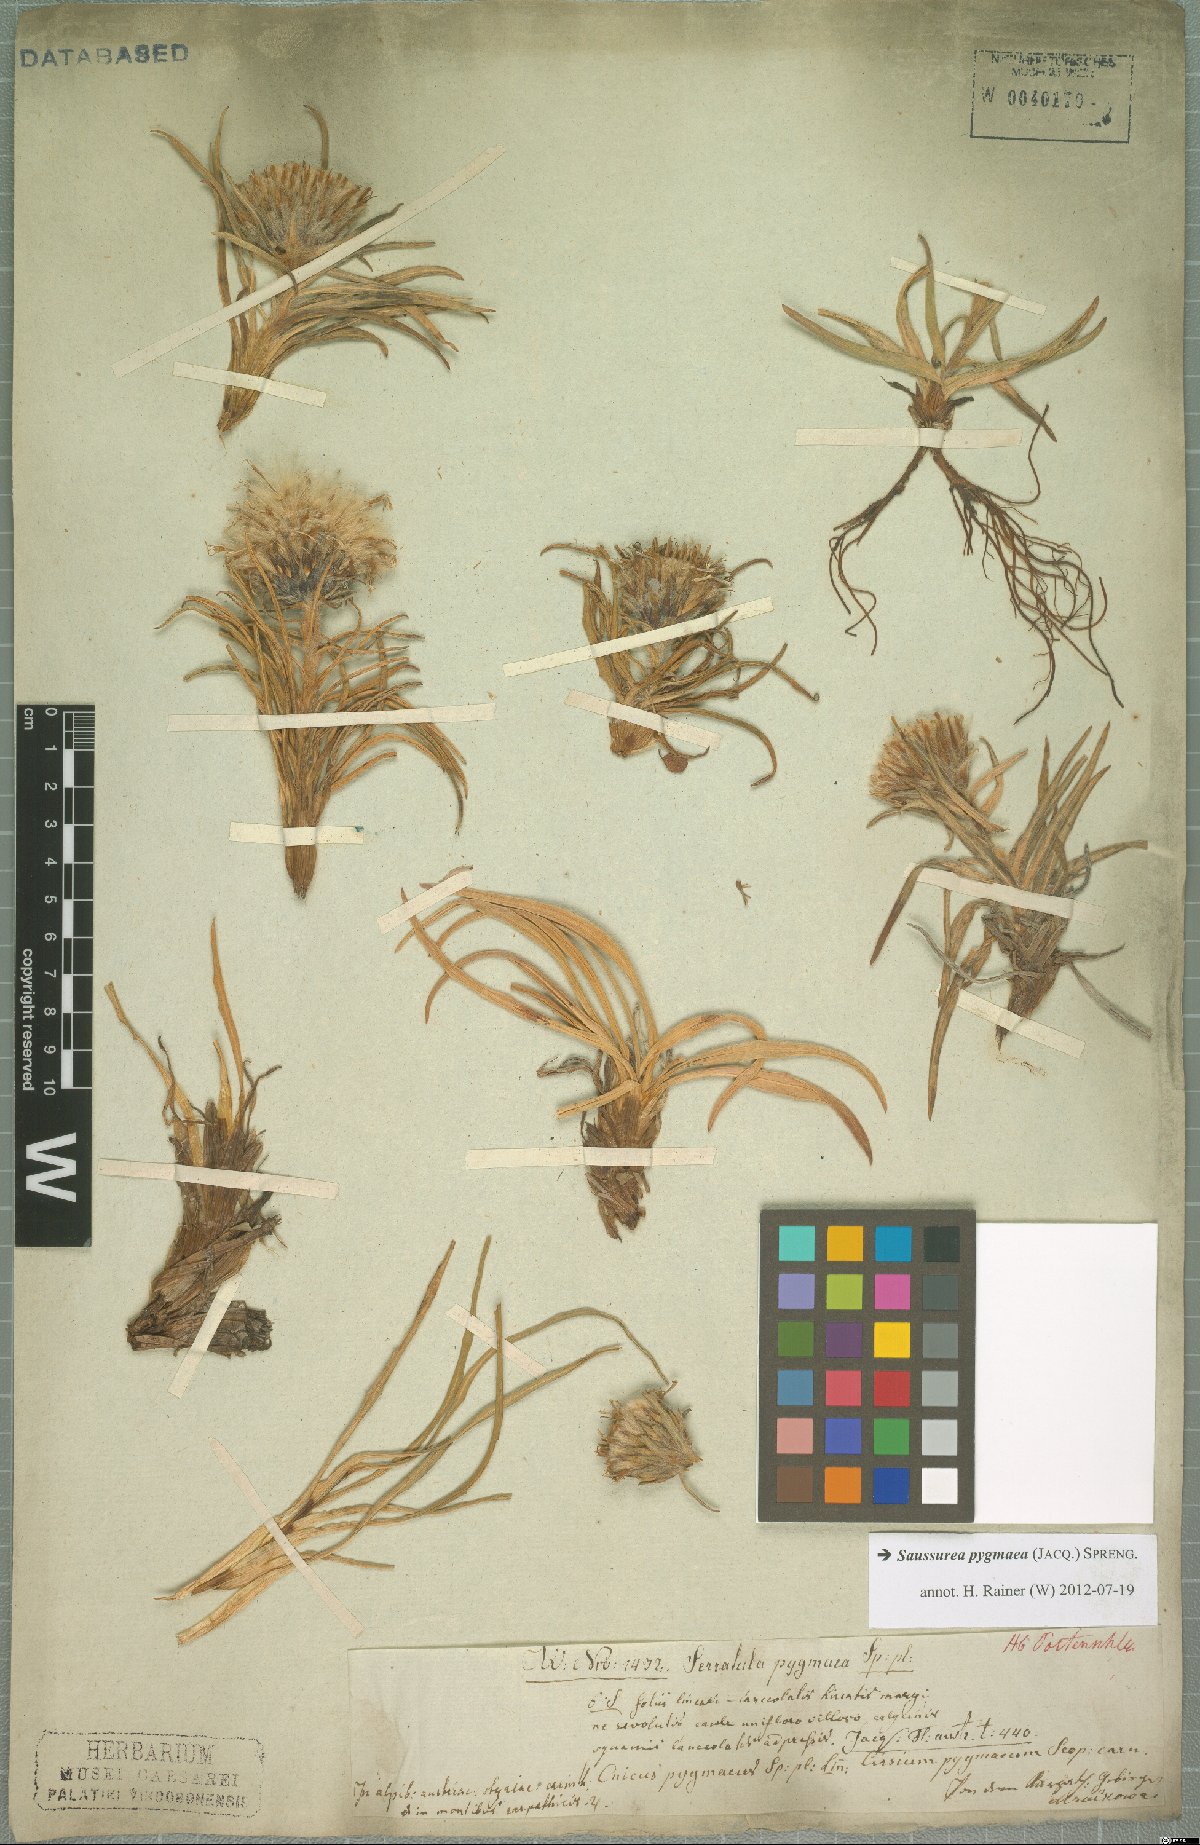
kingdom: Plantae
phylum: Tracheophyta
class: Magnoliopsida
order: Asterales
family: Asteraceae
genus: Saussurea
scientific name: Saussurea pygmaea
